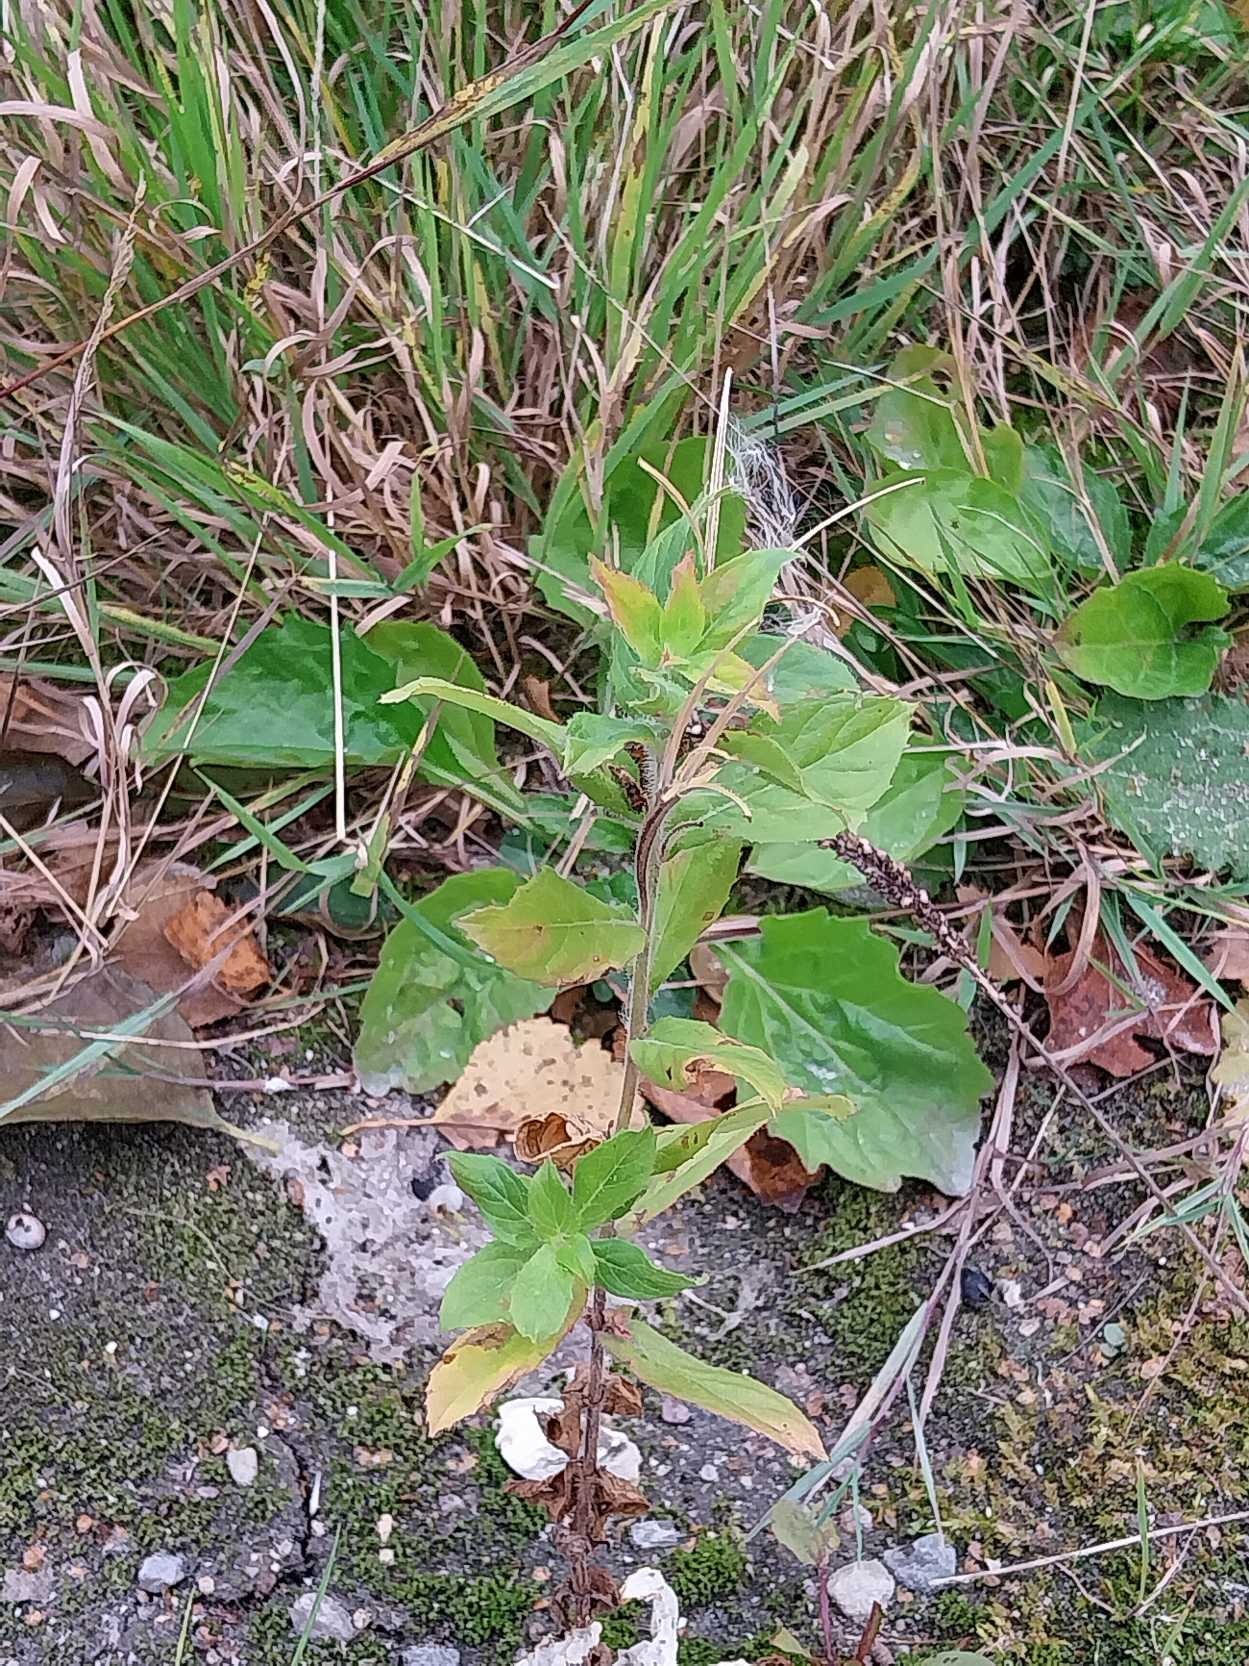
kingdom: Plantae
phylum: Tracheophyta
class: Magnoliopsida
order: Myrtales
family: Onagraceae
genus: Epilobium
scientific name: Epilobium hirsutum
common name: Lådden dueurt
